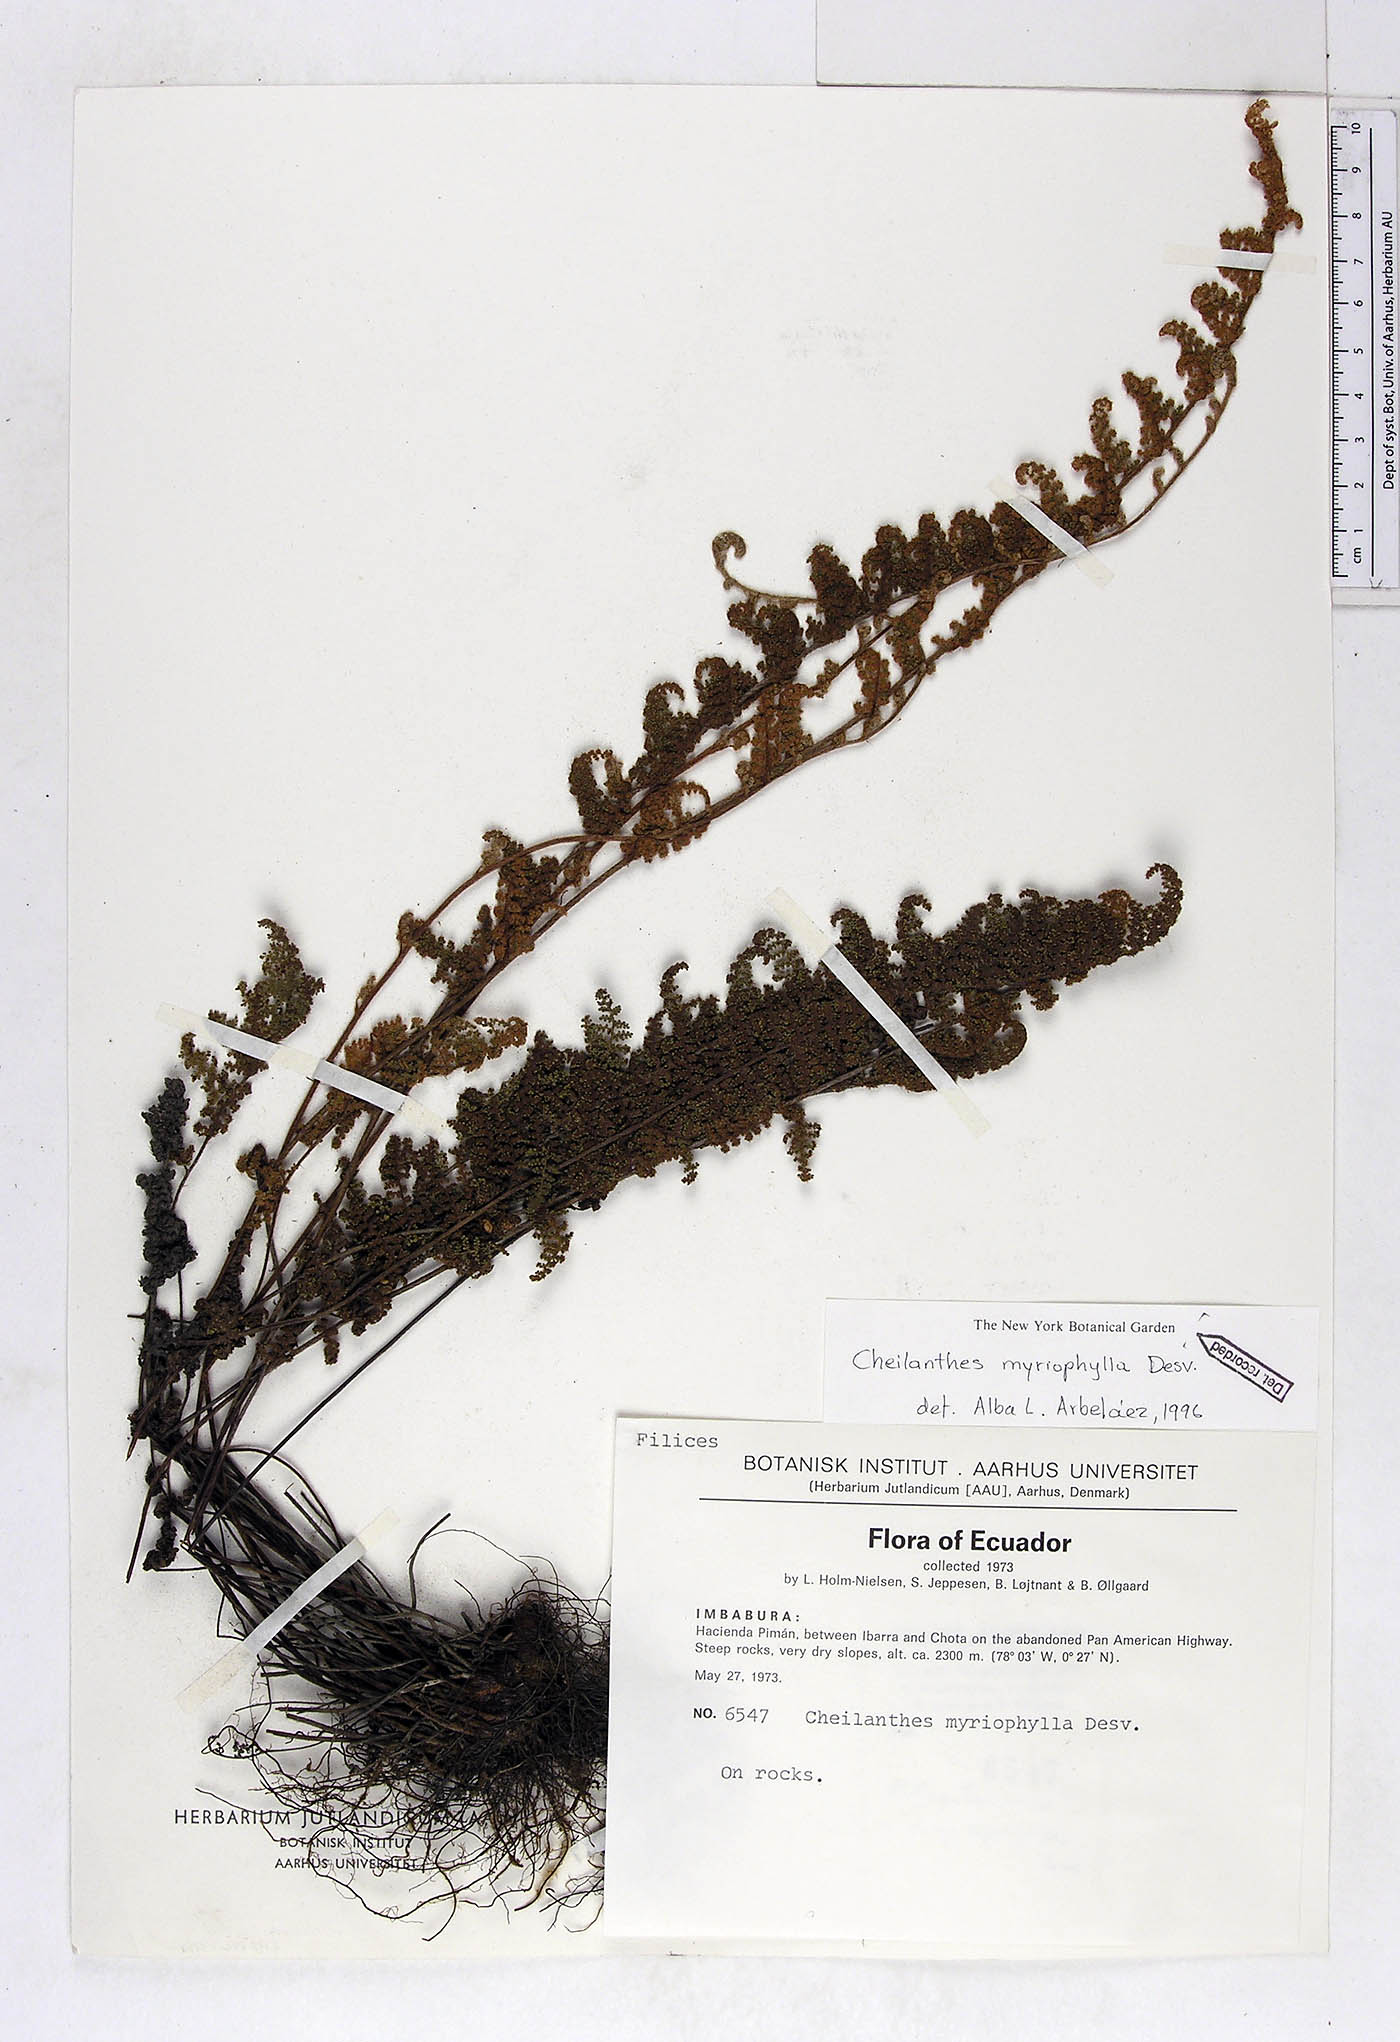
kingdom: Plantae
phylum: Tracheophyta
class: Polypodiopsida
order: Polypodiales
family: Pteridaceae
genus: Myriopteris
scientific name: Myriopteris myriophylla
